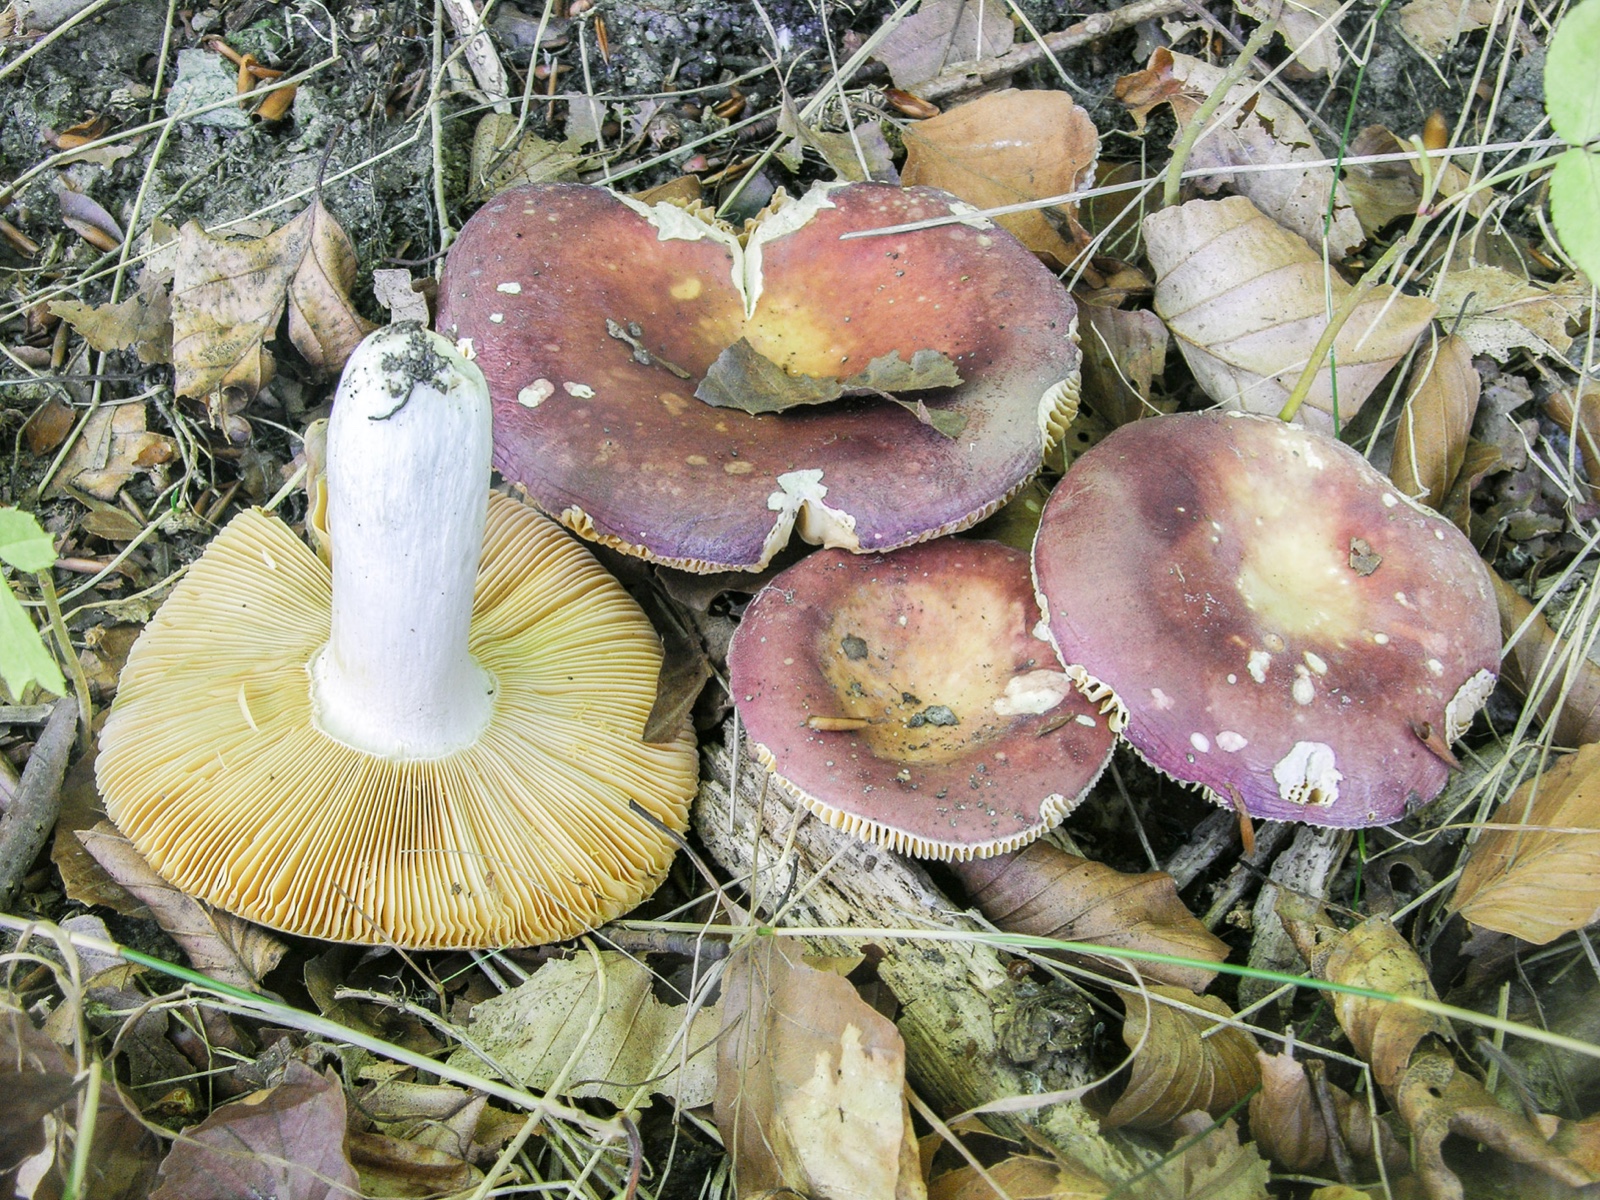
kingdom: Fungi
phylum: Basidiomycota
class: Agaricomycetes
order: Russulales
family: Russulaceae
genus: Russula
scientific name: Russula decipiens
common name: grånende skørhat
